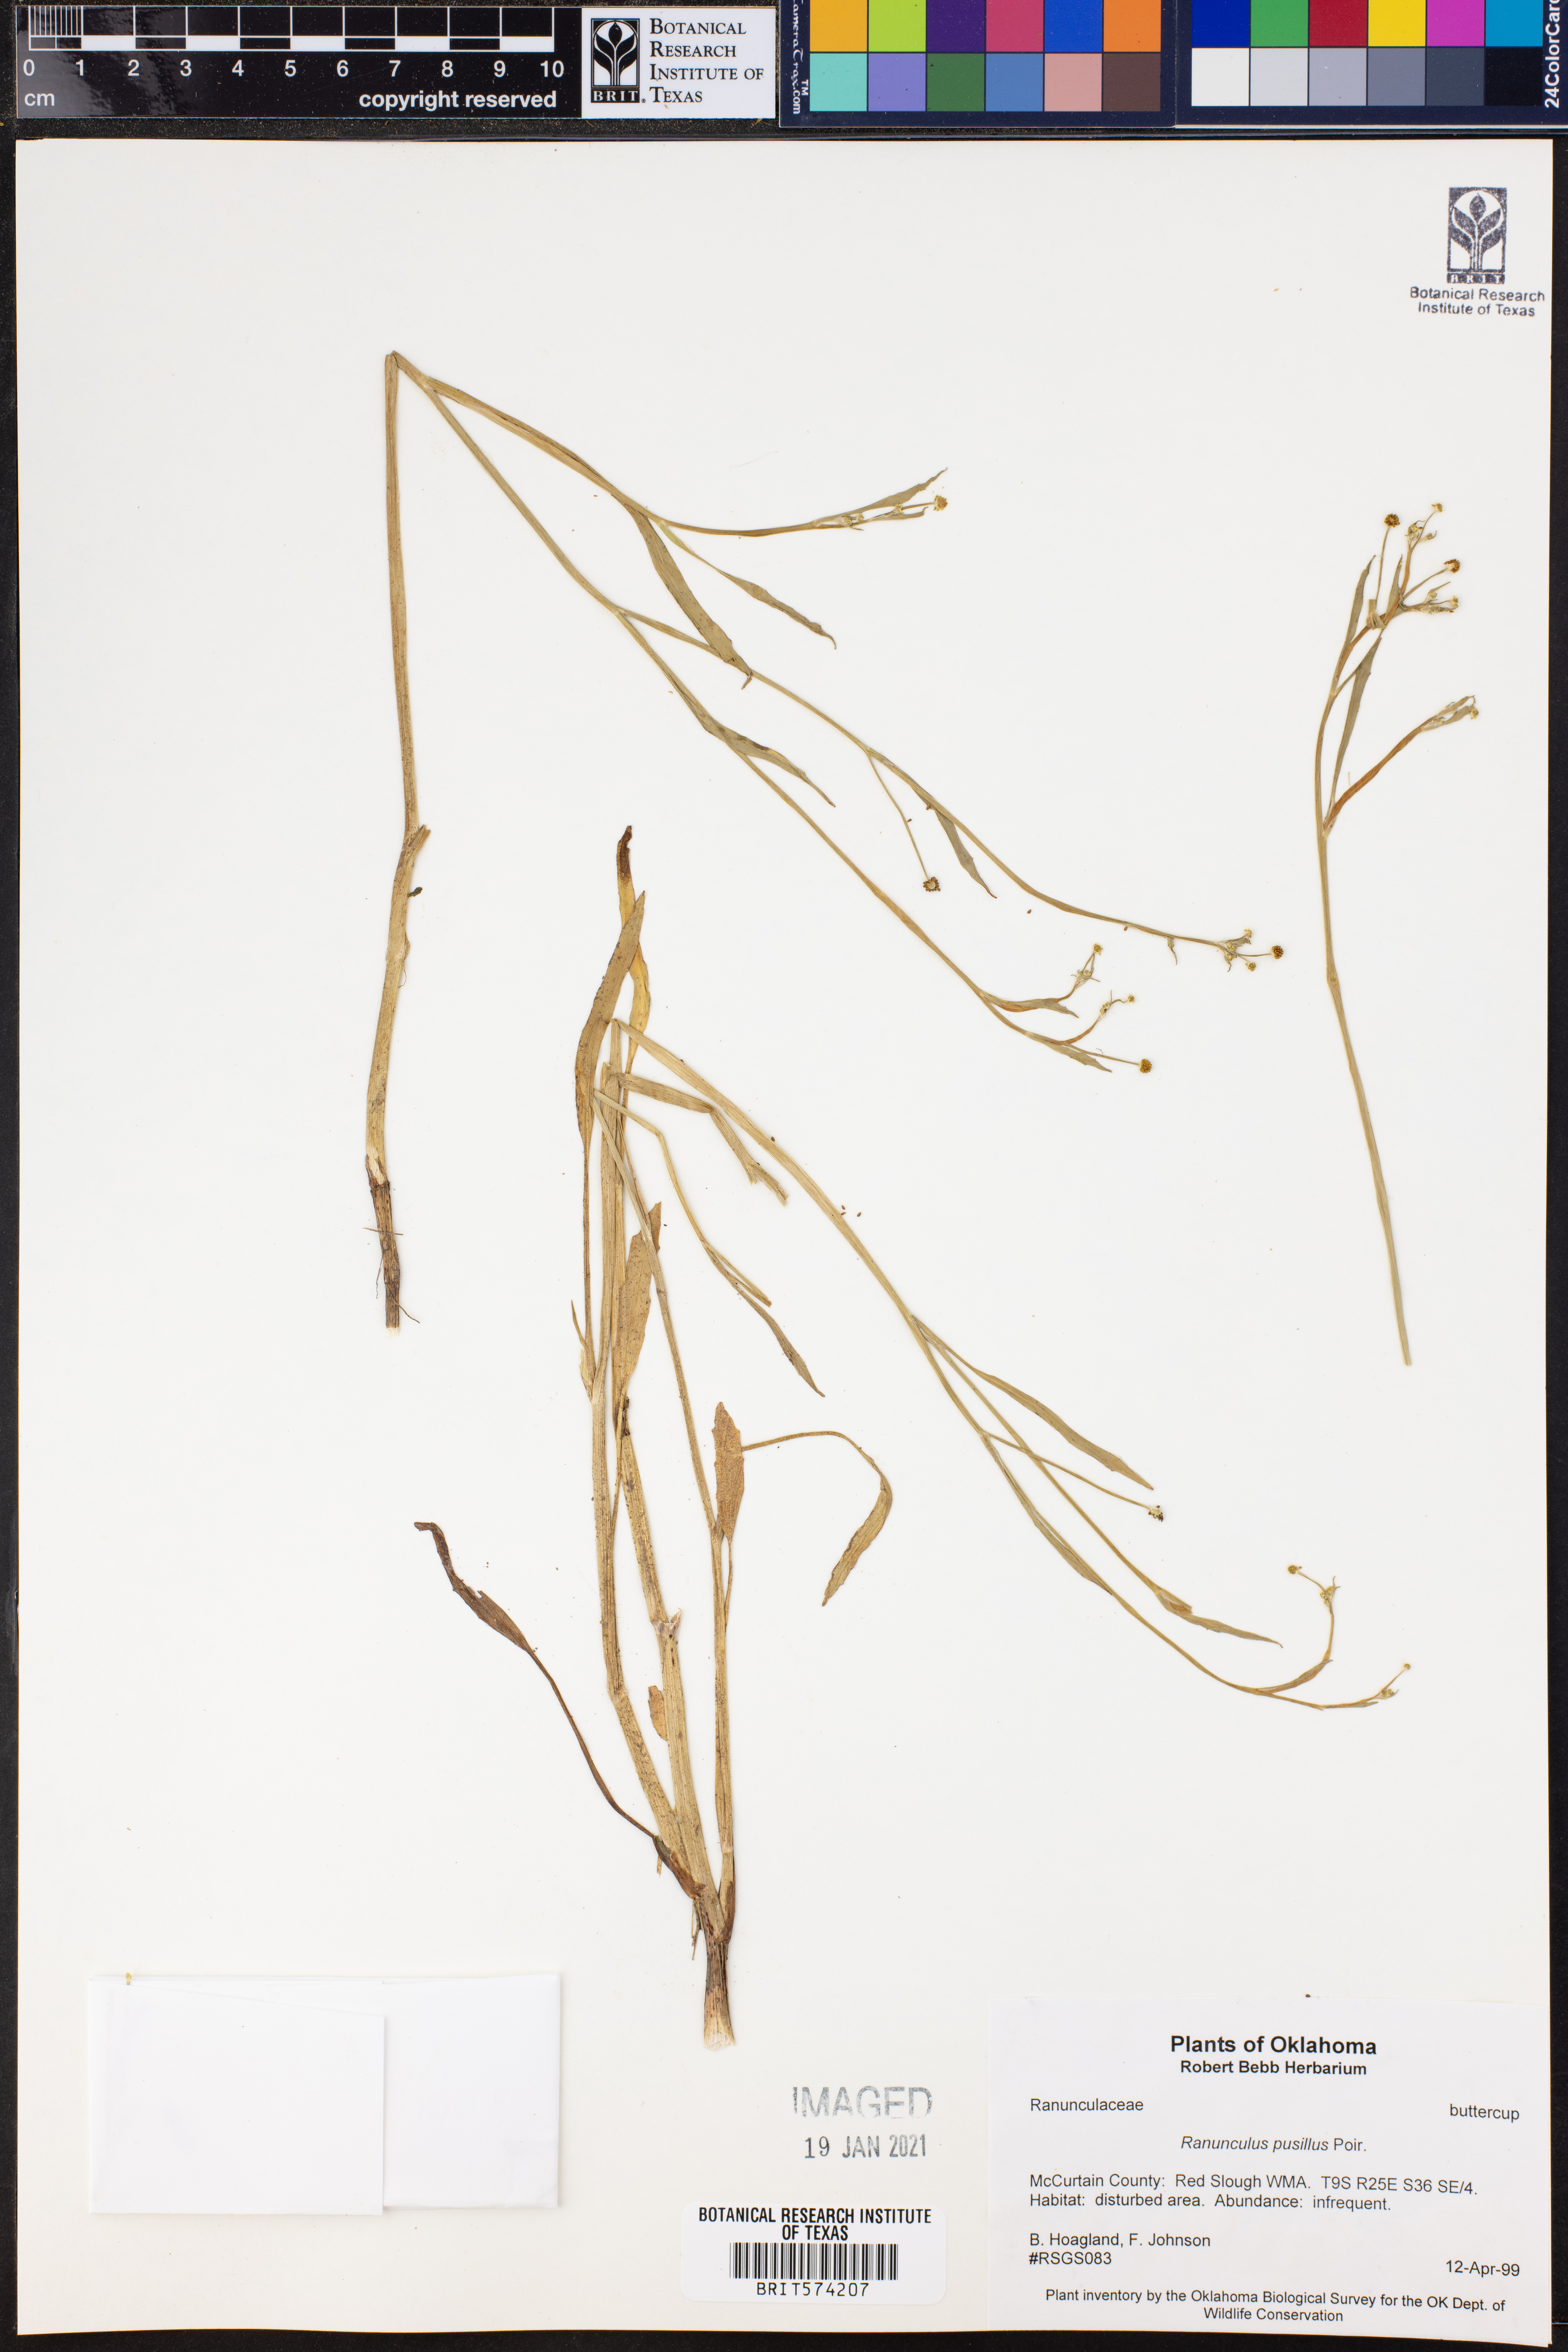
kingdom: Plantae
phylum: Tracheophyta
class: Magnoliopsida
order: Ranunculales
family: Ranunculaceae
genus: Ranunculus
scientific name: Ranunculus pusillus
